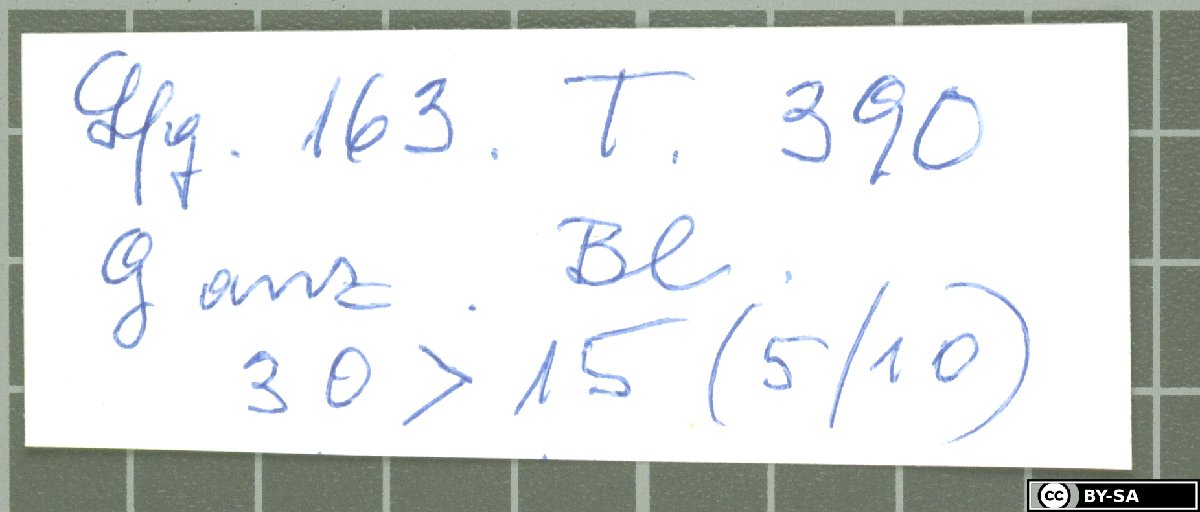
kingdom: Plantae
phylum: Tracheophyta
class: Magnoliopsida
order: Caryophyllales
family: Caryophyllaceae
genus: Dianthus
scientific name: Dianthus jacobsii
